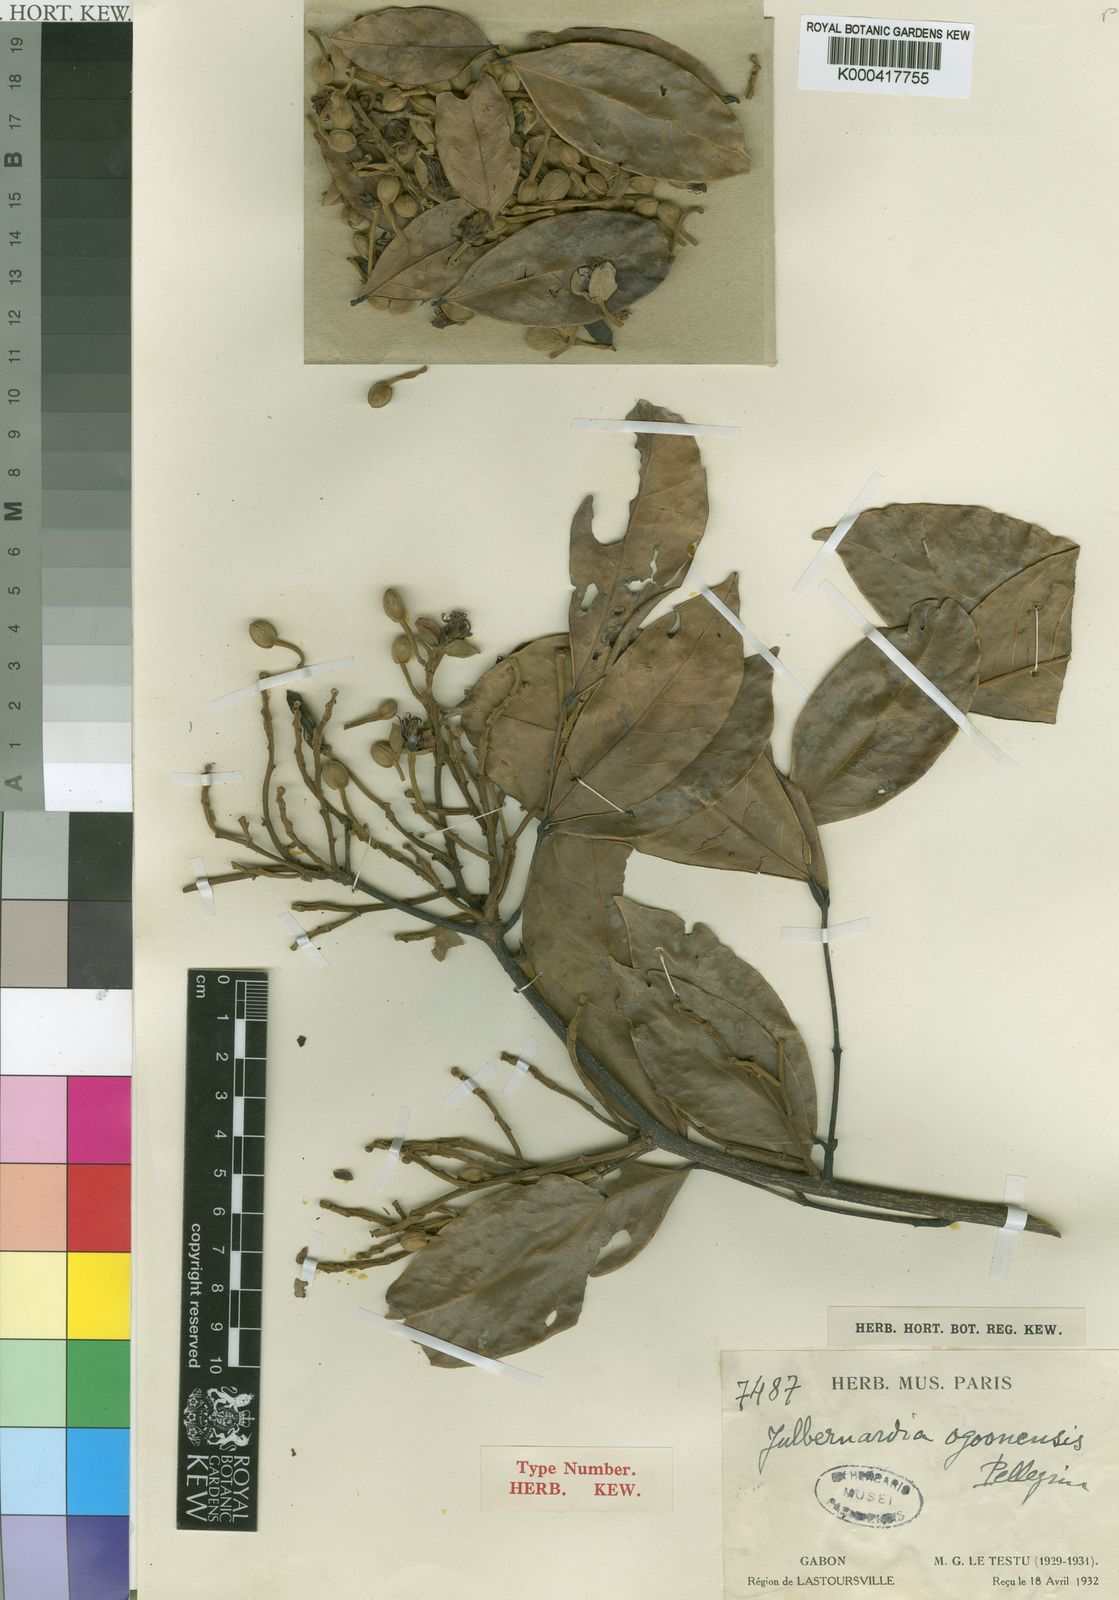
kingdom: Plantae
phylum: Tracheophyta
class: Magnoliopsida
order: Fabales
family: Fabaceae
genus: Julbernardia
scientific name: Julbernardia seretii
